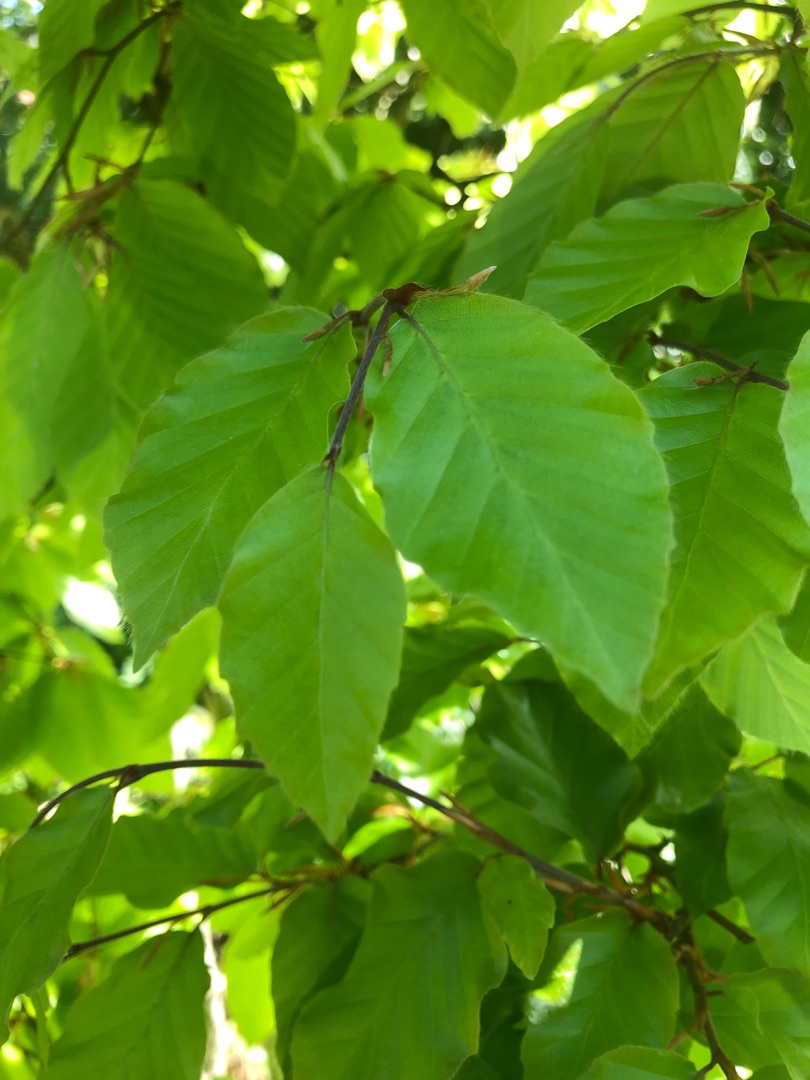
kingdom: Plantae
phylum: Tracheophyta
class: Magnoliopsida
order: Fagales
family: Fagaceae
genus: Fagus
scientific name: Fagus sylvatica
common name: Bøg
